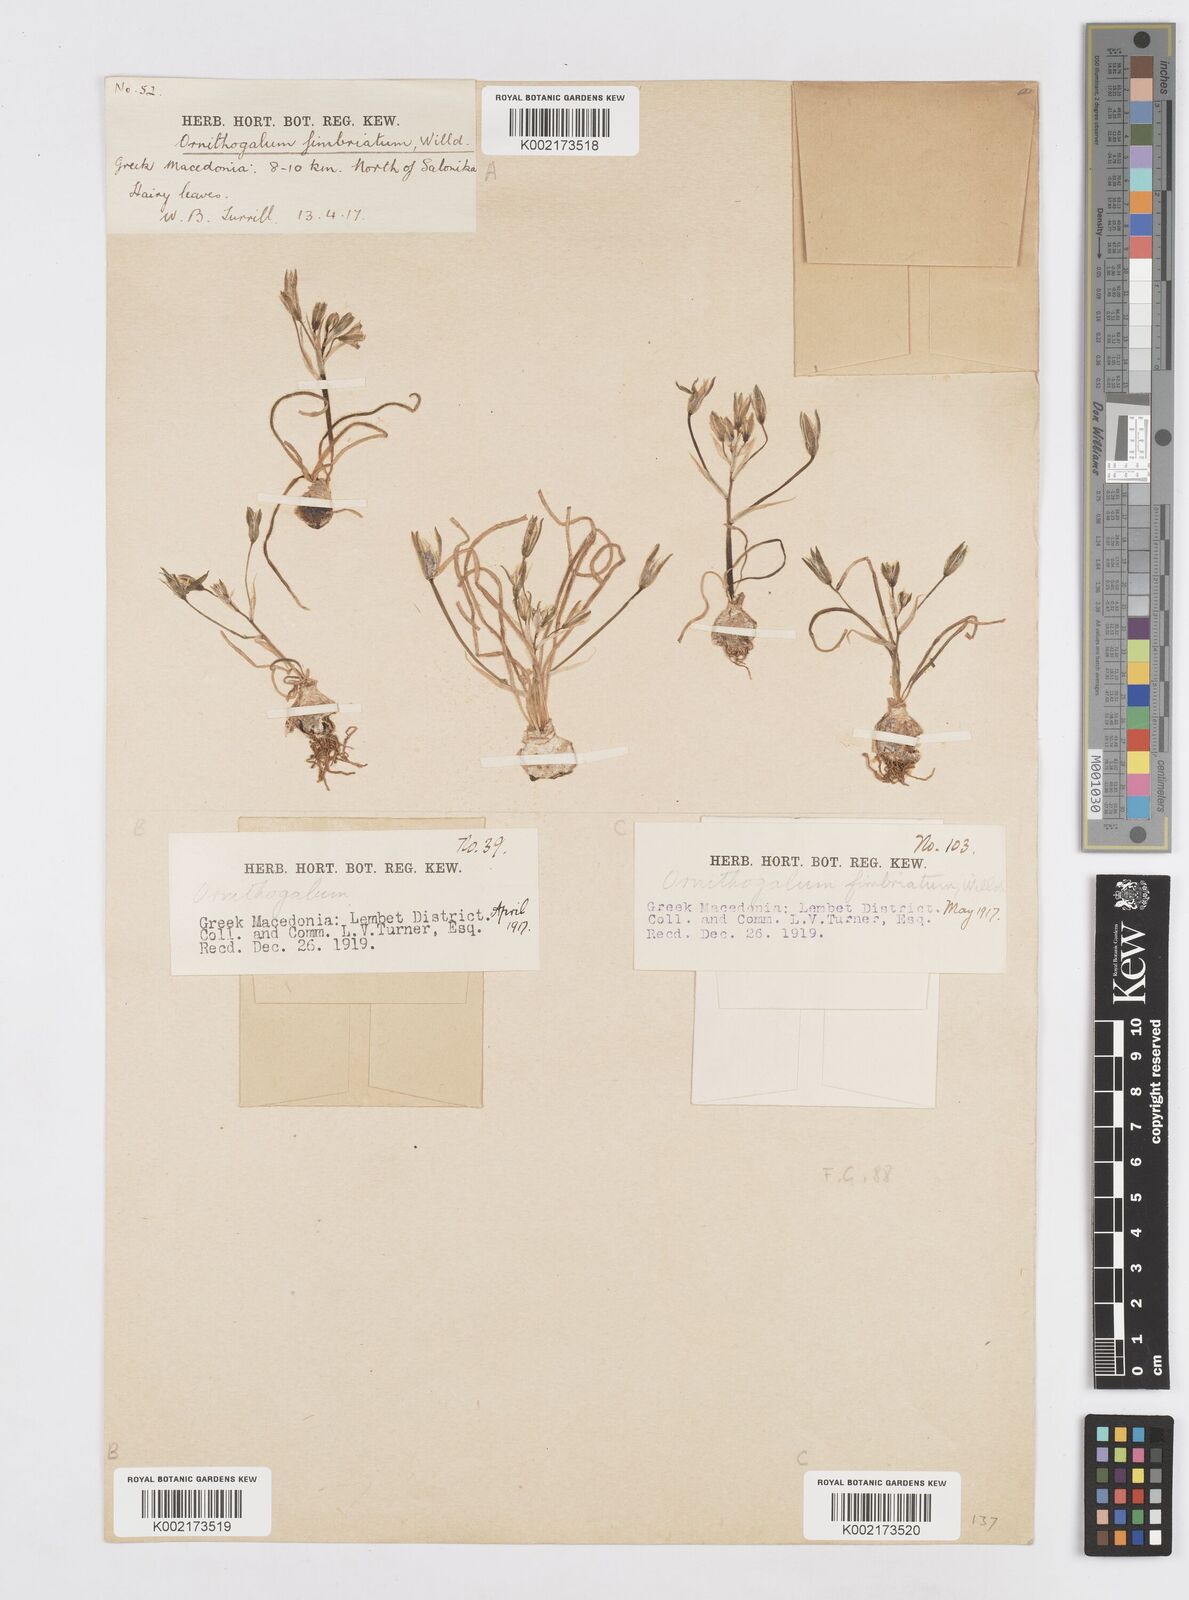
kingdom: Plantae
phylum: Tracheophyta
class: Liliopsida
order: Asparagales
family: Asparagaceae
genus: Ornithogalum
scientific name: Ornithogalum fimbriatum
